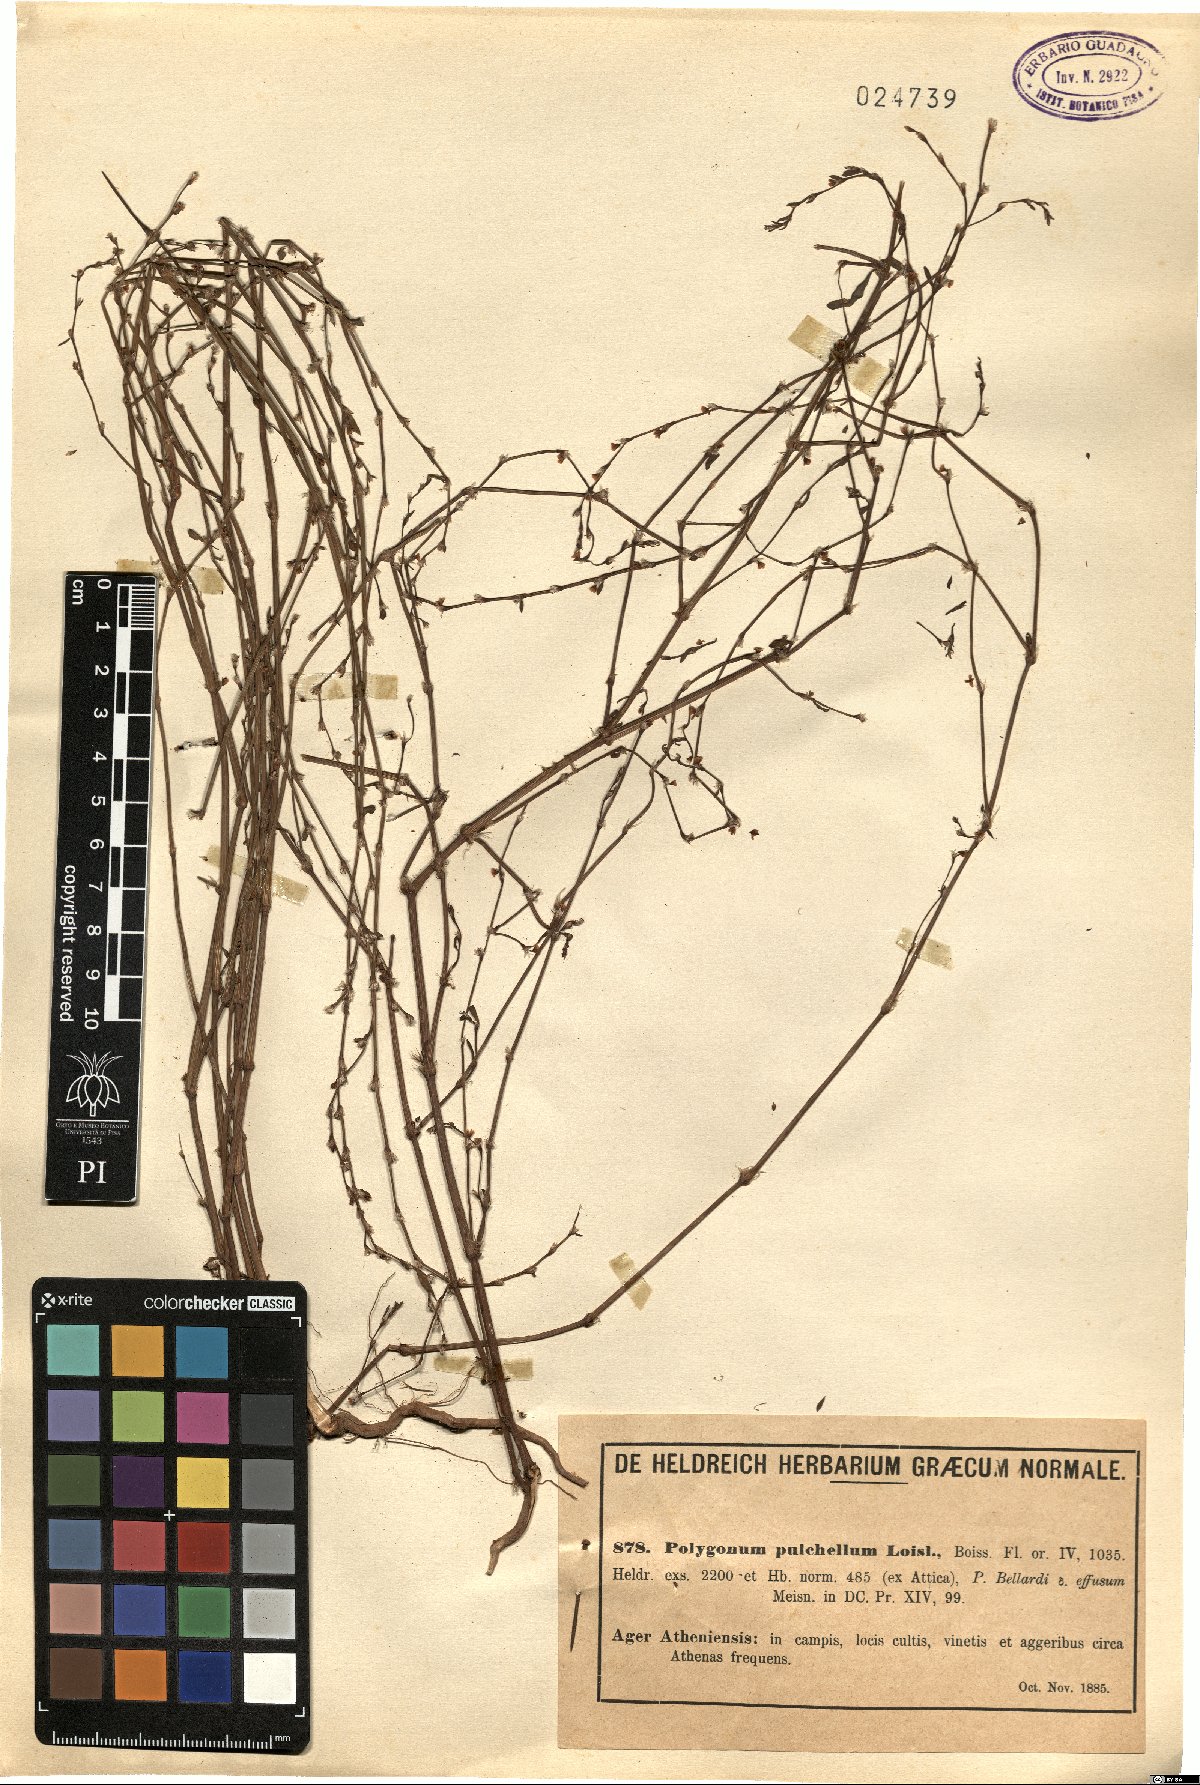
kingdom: Plantae
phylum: Tracheophyta
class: Magnoliopsida
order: Caryophyllales
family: Polygonaceae
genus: Polygonum
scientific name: Polygonum arenarium
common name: Lesser red-knotgrass
